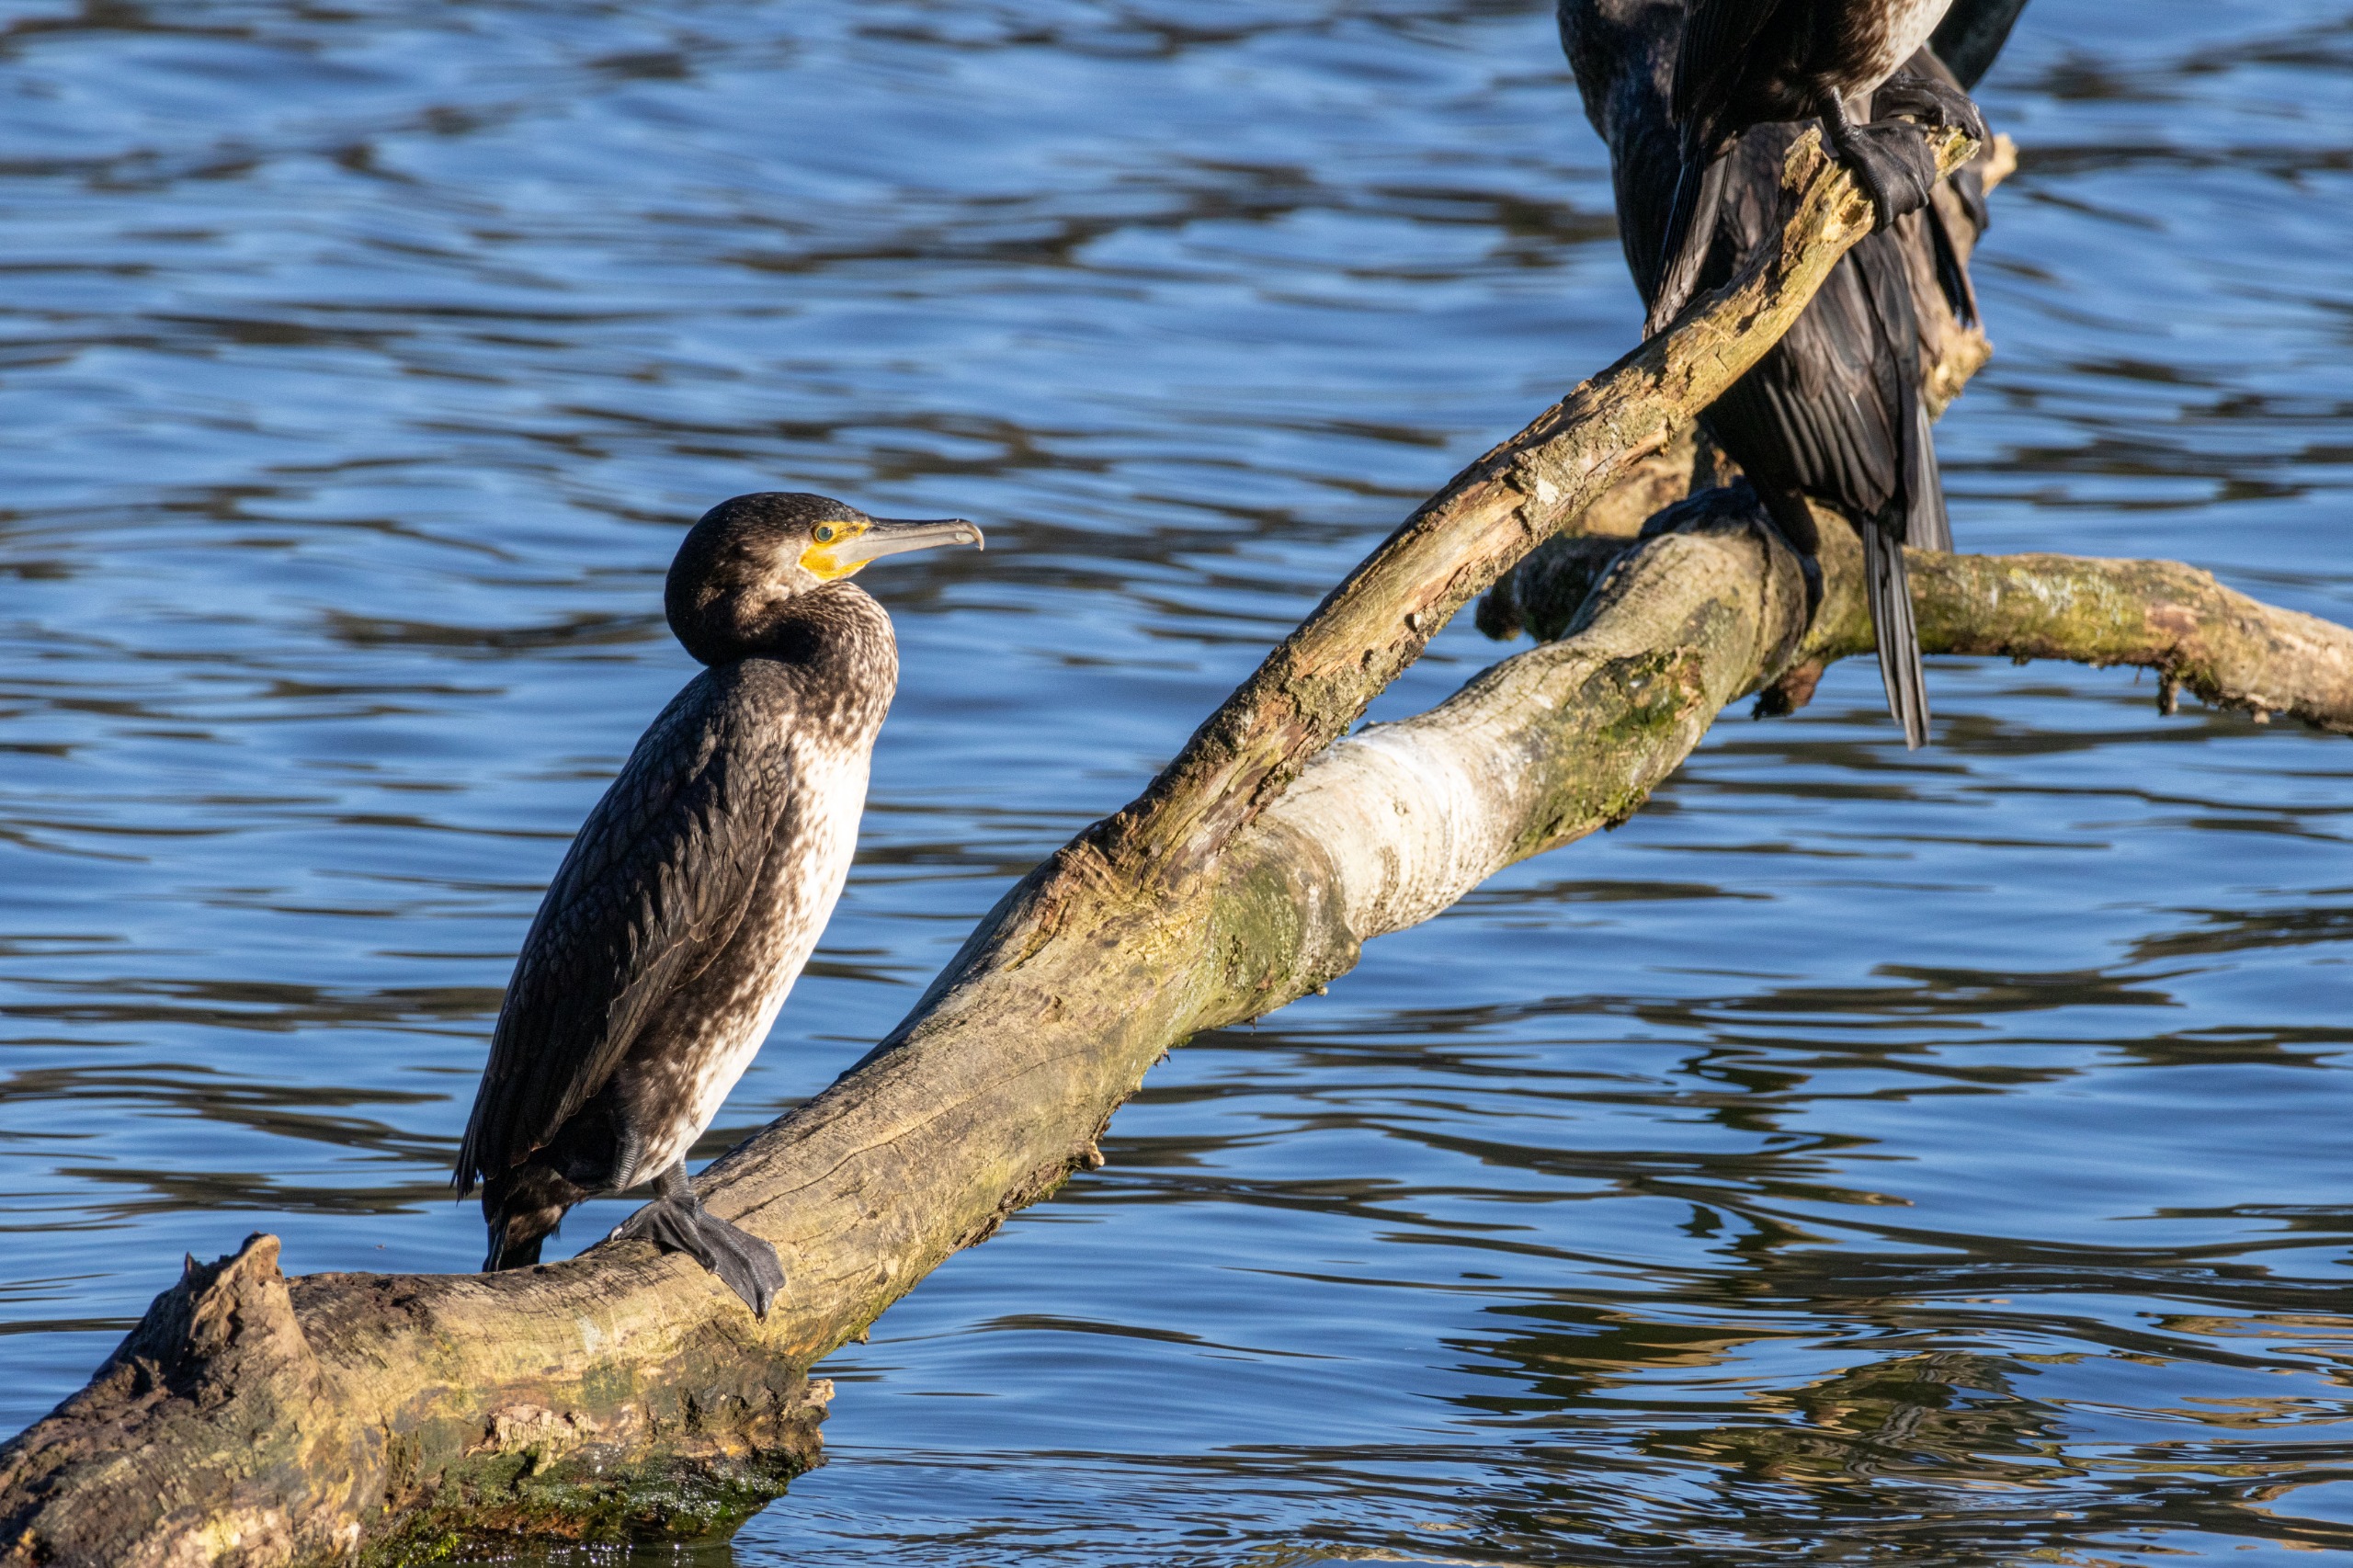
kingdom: Animalia
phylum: Chordata
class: Aves
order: Suliformes
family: Phalacrocoracidae
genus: Phalacrocorax
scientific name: Phalacrocorax carbo
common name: Skarv
